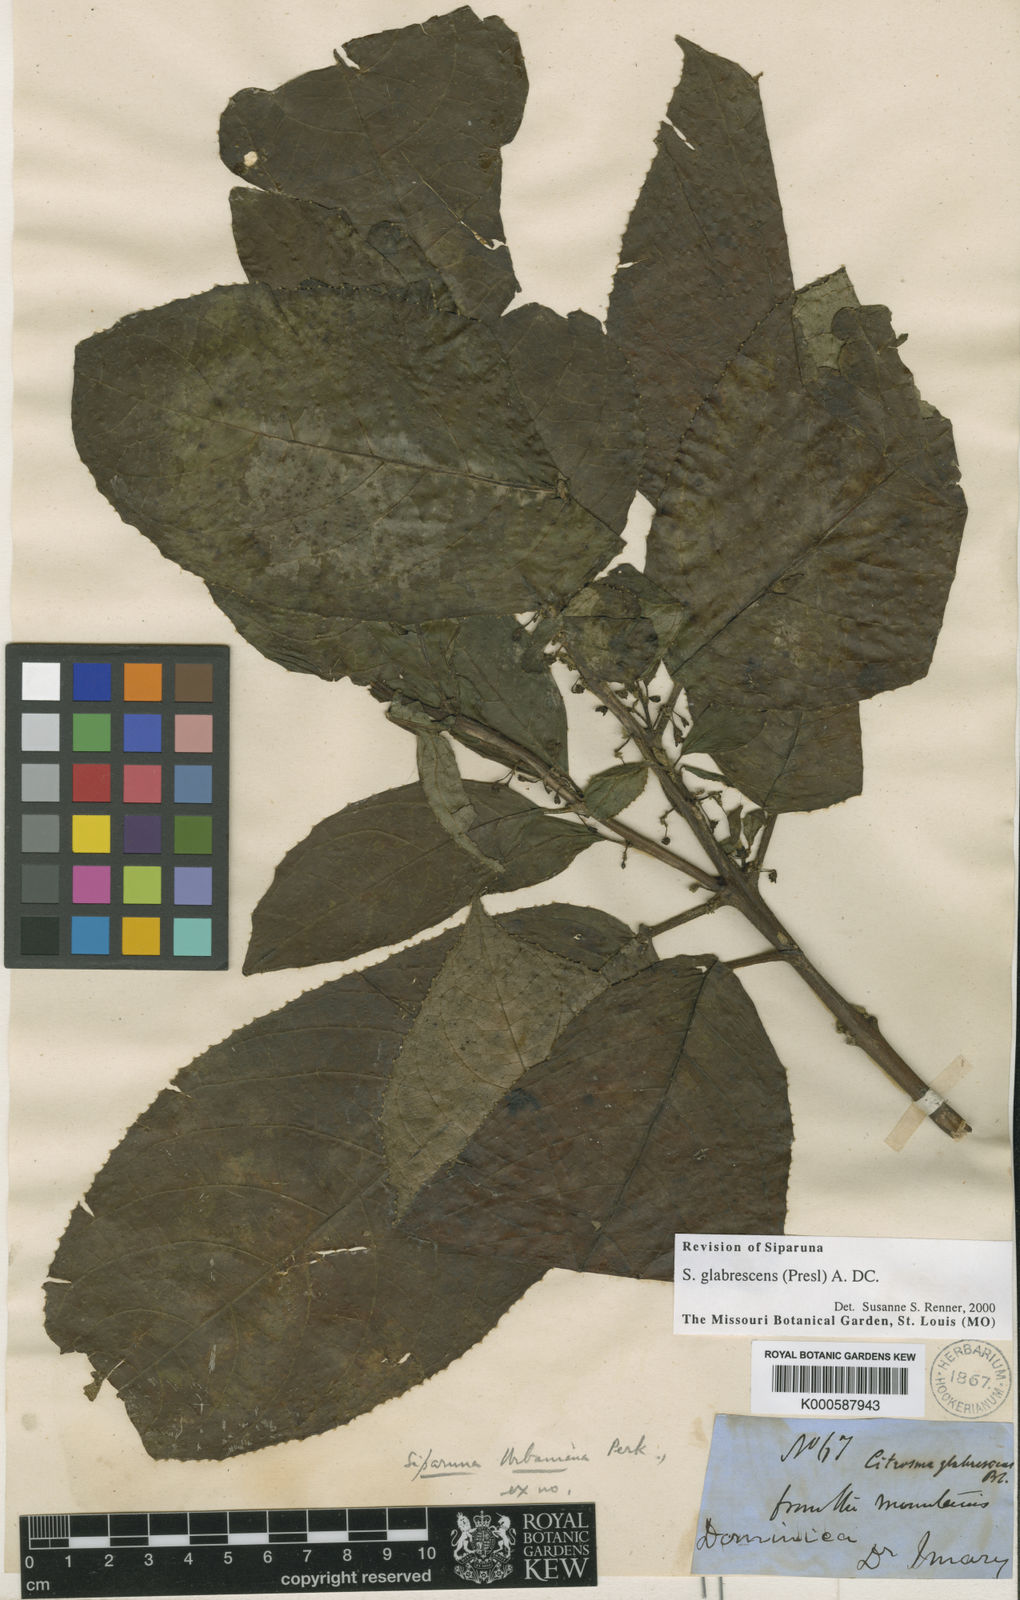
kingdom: Plantae
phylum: Tracheophyta
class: Magnoliopsida
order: Laurales
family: Siparunaceae
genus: Siparuna
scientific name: Siparuna glabrescens
